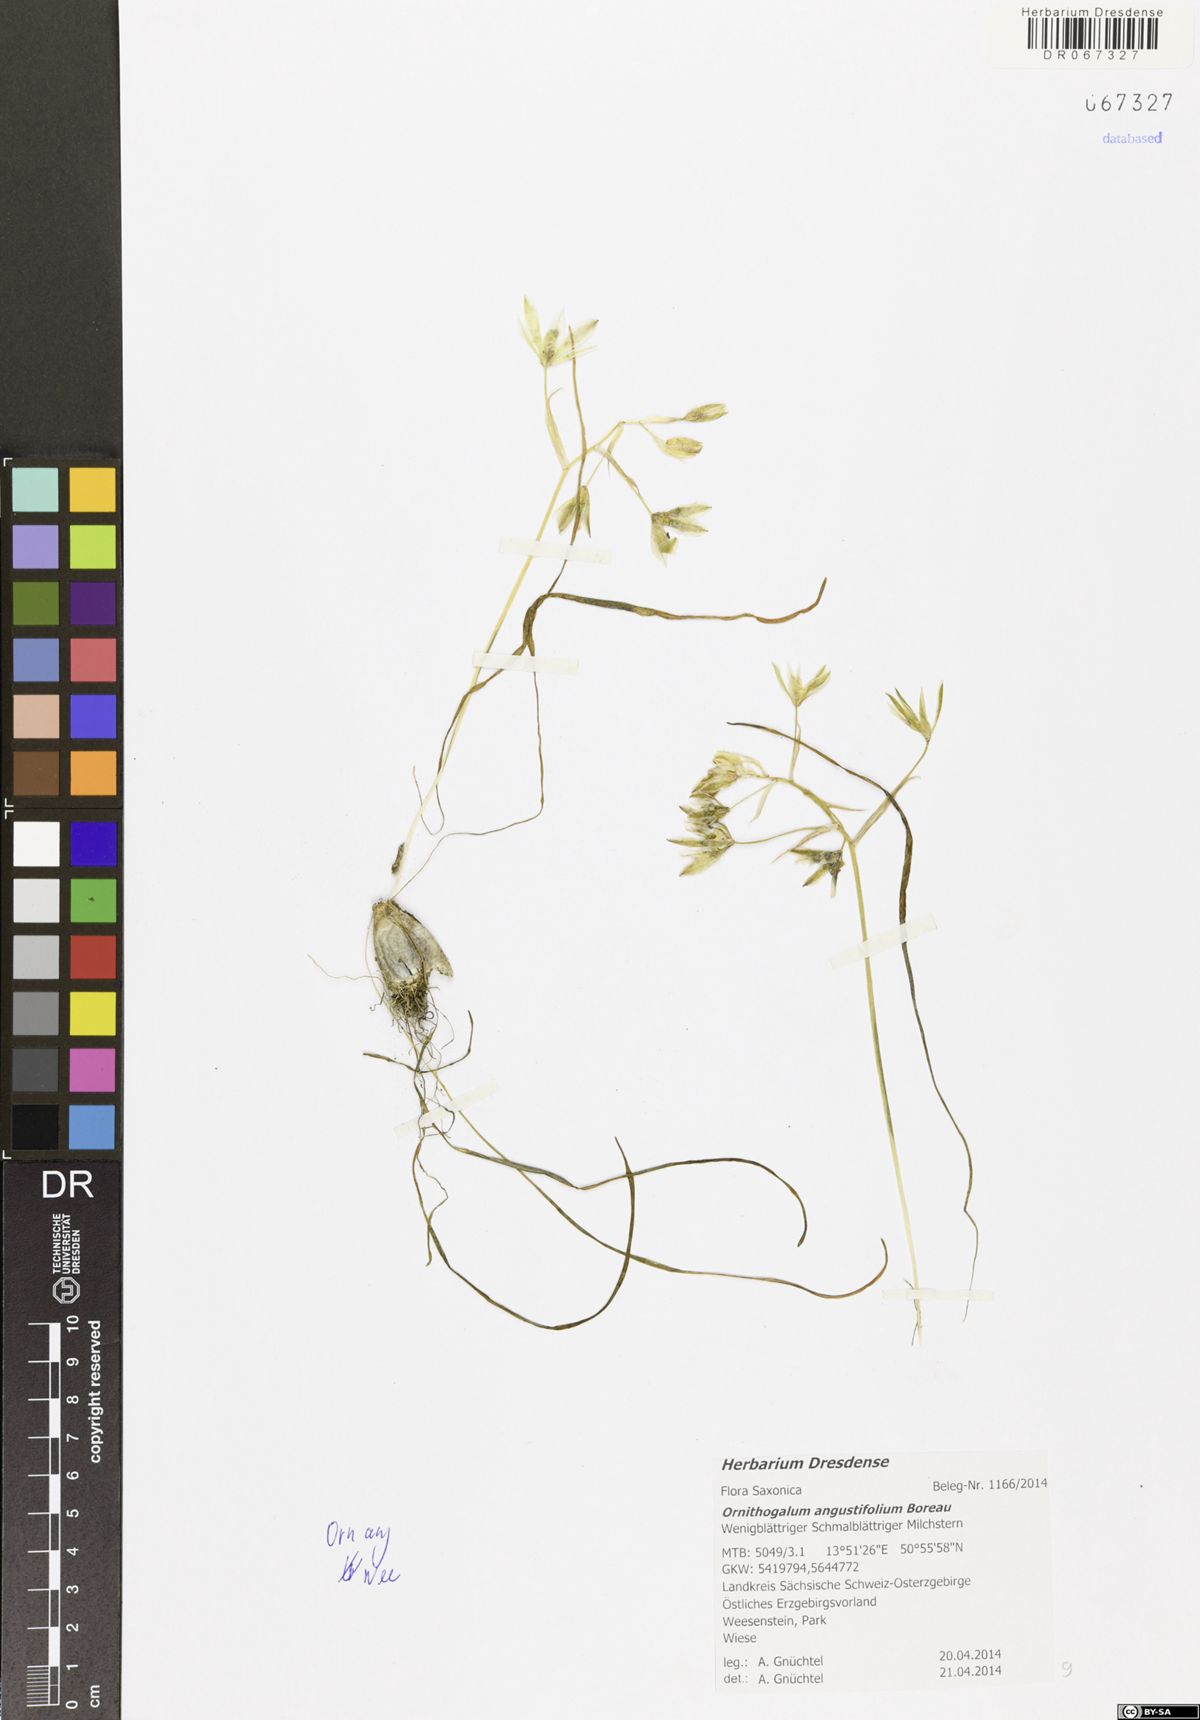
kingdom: Plantae
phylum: Tracheophyta
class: Liliopsida
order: Asparagales
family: Asparagaceae
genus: Ornithogalum
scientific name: Ornithogalum umbellatum
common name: Garden star-of-bethlehem
